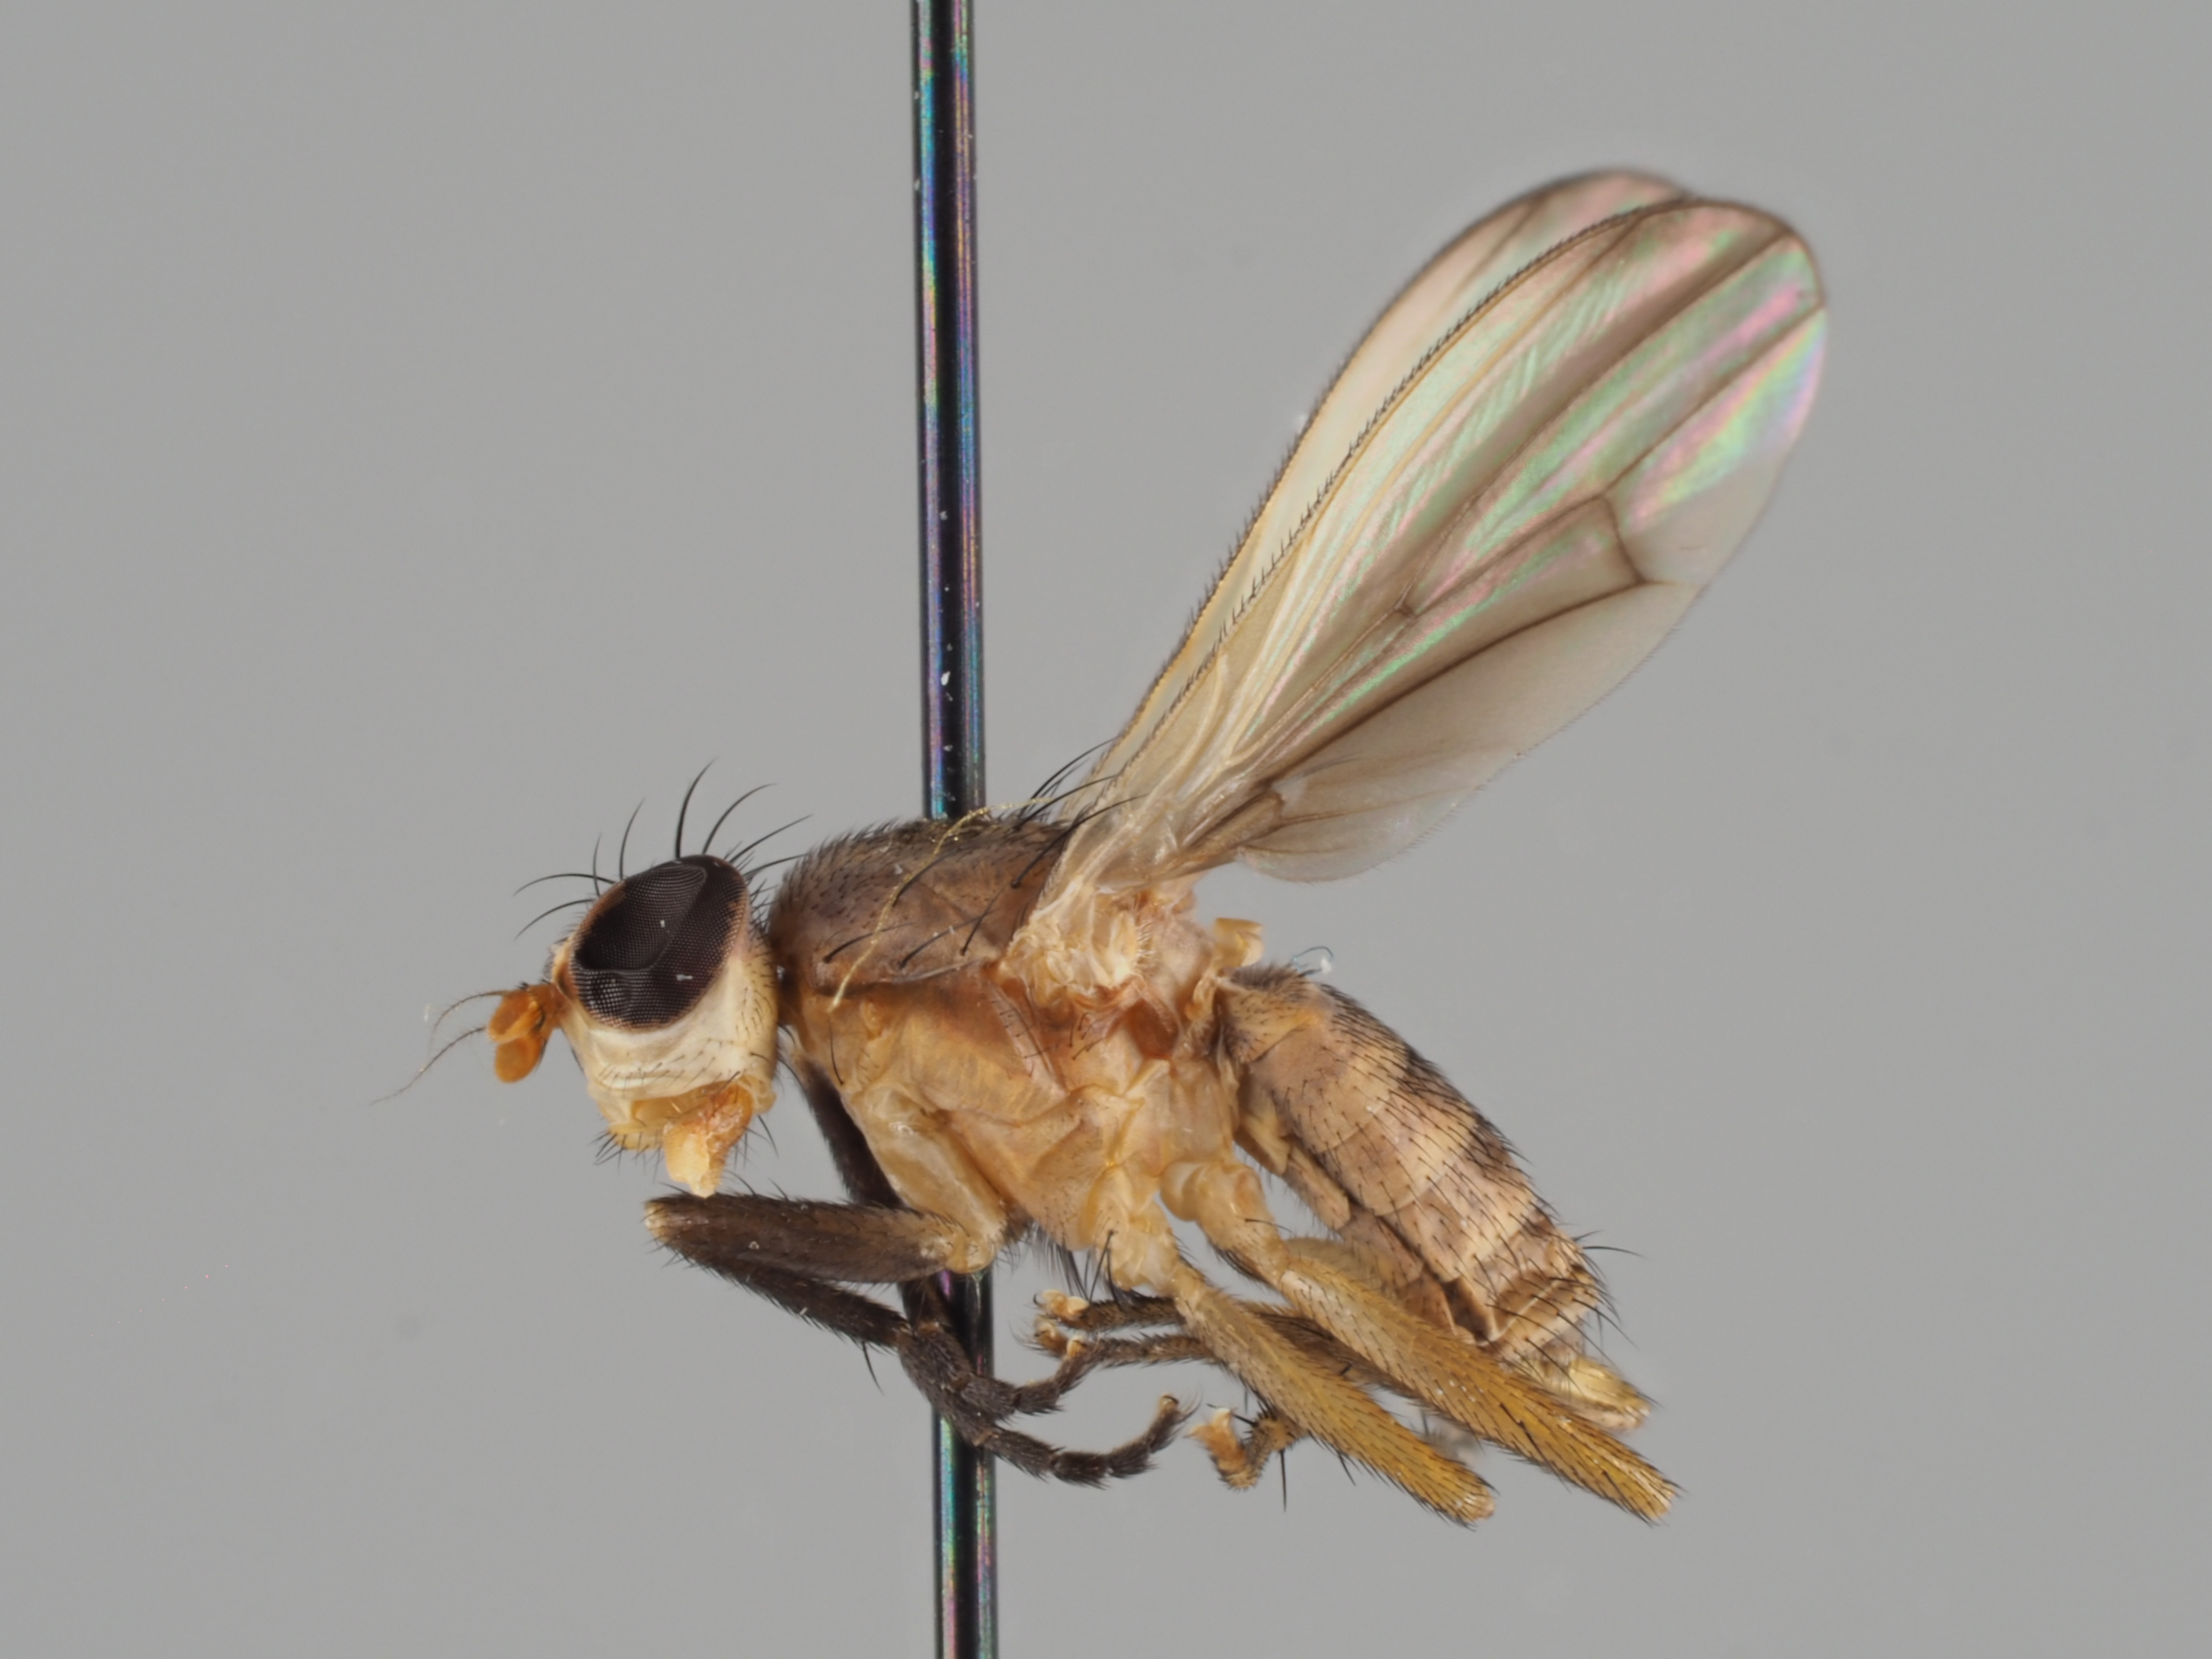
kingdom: Animalia
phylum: Arthropoda
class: Insecta
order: Diptera
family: Sciomyzidae
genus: Pherbellia
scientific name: Pherbellia albocostata
